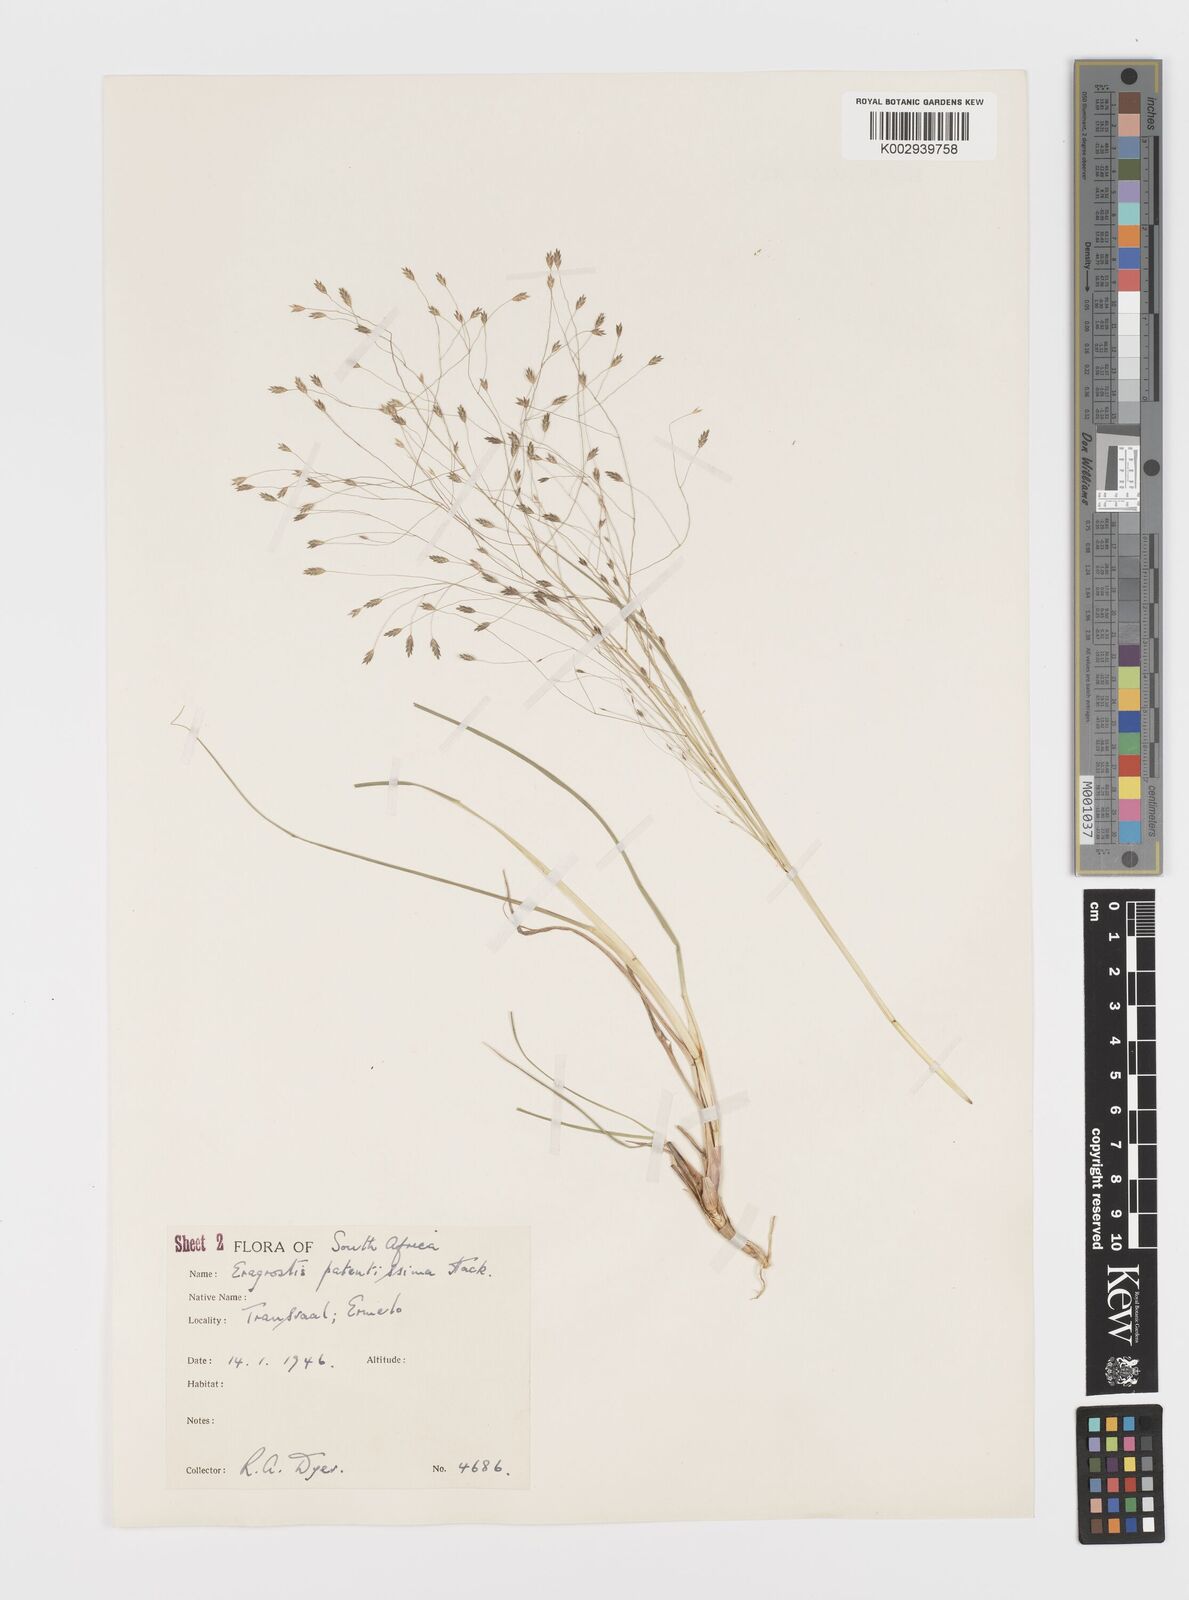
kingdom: Plantae
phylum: Tracheophyta
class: Liliopsida
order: Poales
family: Poaceae
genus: Eragrostis
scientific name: Eragrostis patentissima
